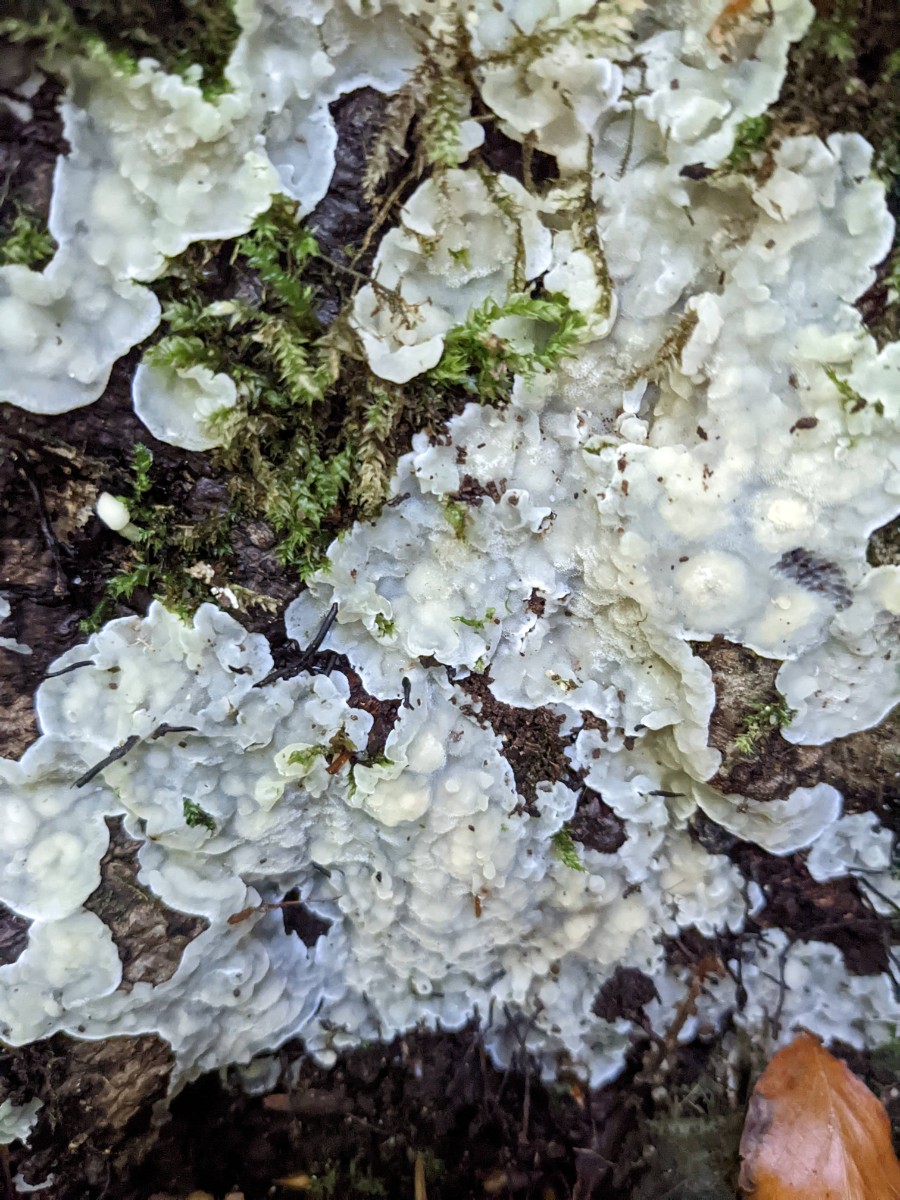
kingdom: Fungi
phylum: Basidiomycota
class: Agaricomycetes
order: Polyporales
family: Meruliaceae
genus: Physisporinus
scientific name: Physisporinus vitreus
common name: mastesvamp
